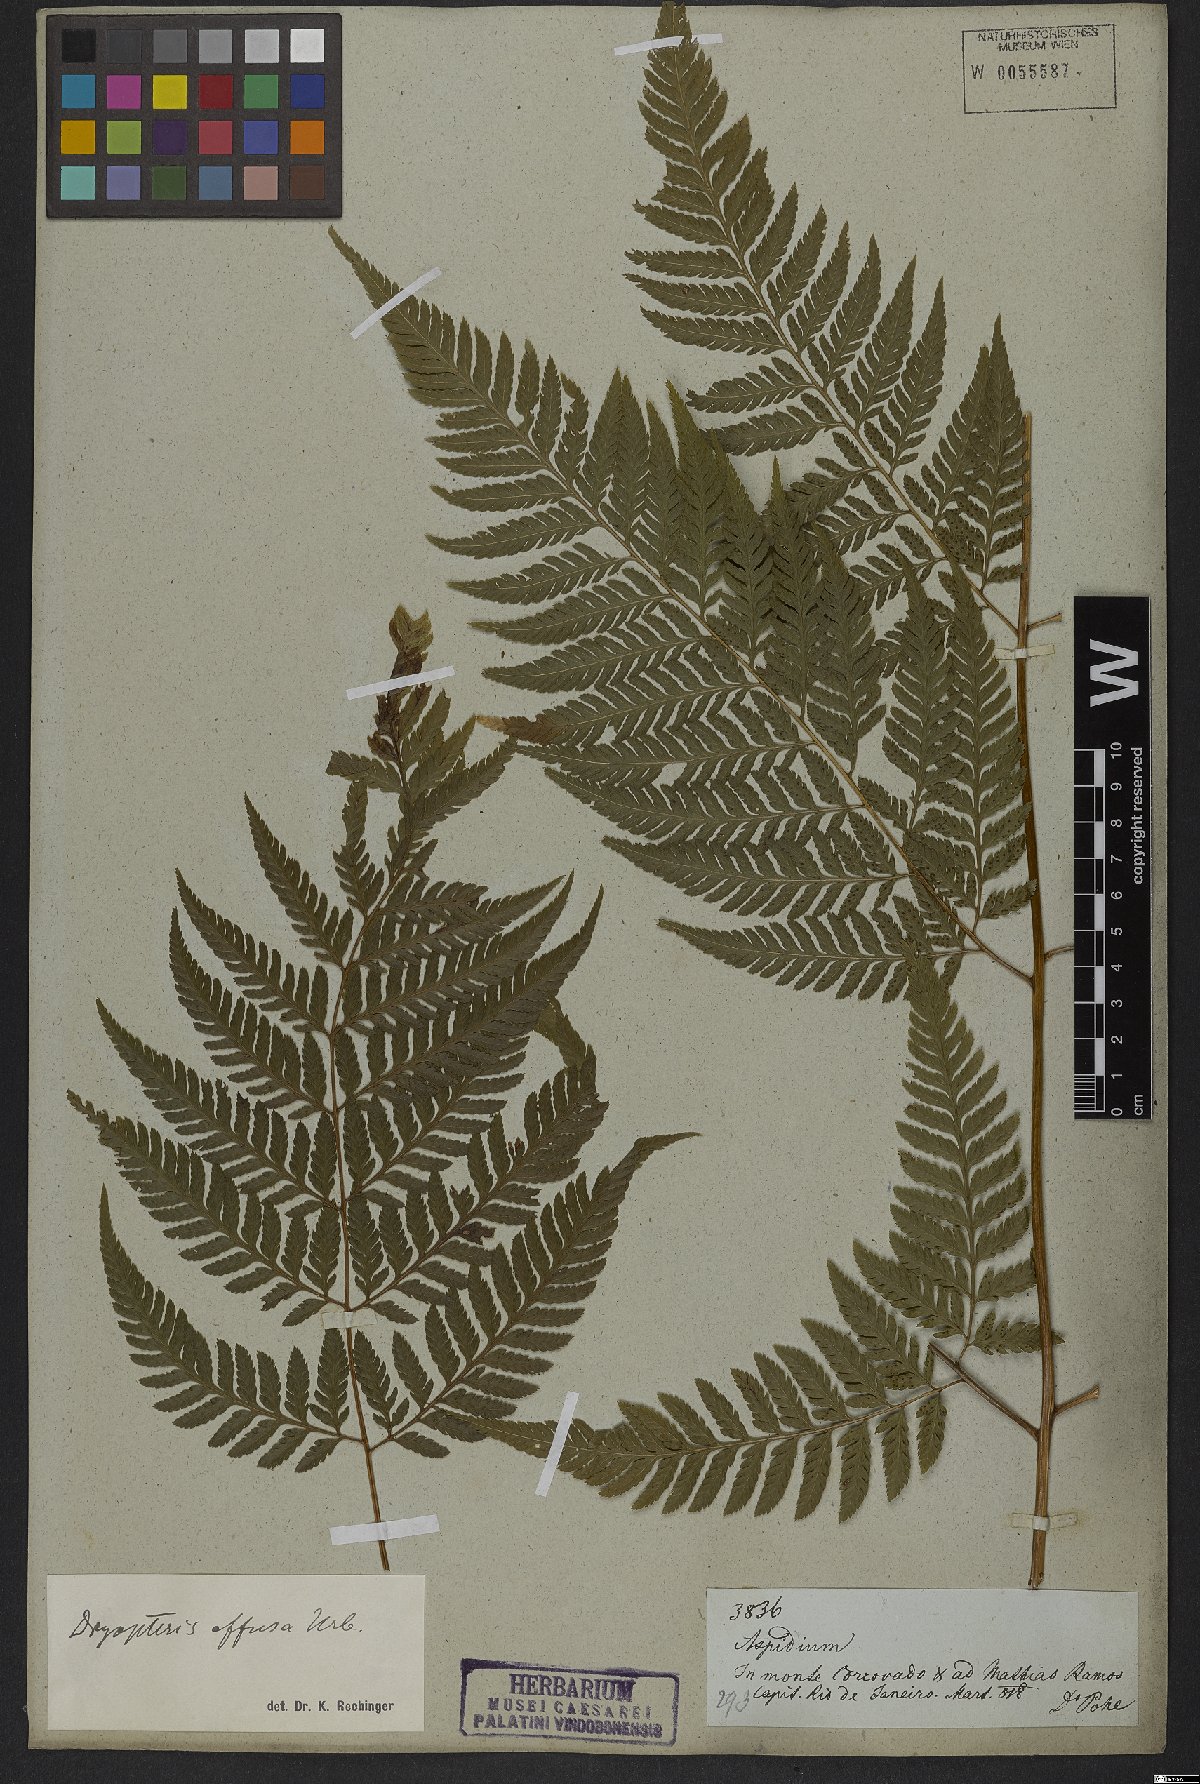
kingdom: Plantae
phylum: Tracheophyta
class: Polypodiopsida
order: Polypodiales
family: Dryopteridaceae
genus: Parapolystichum
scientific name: Parapolystichum effusum
